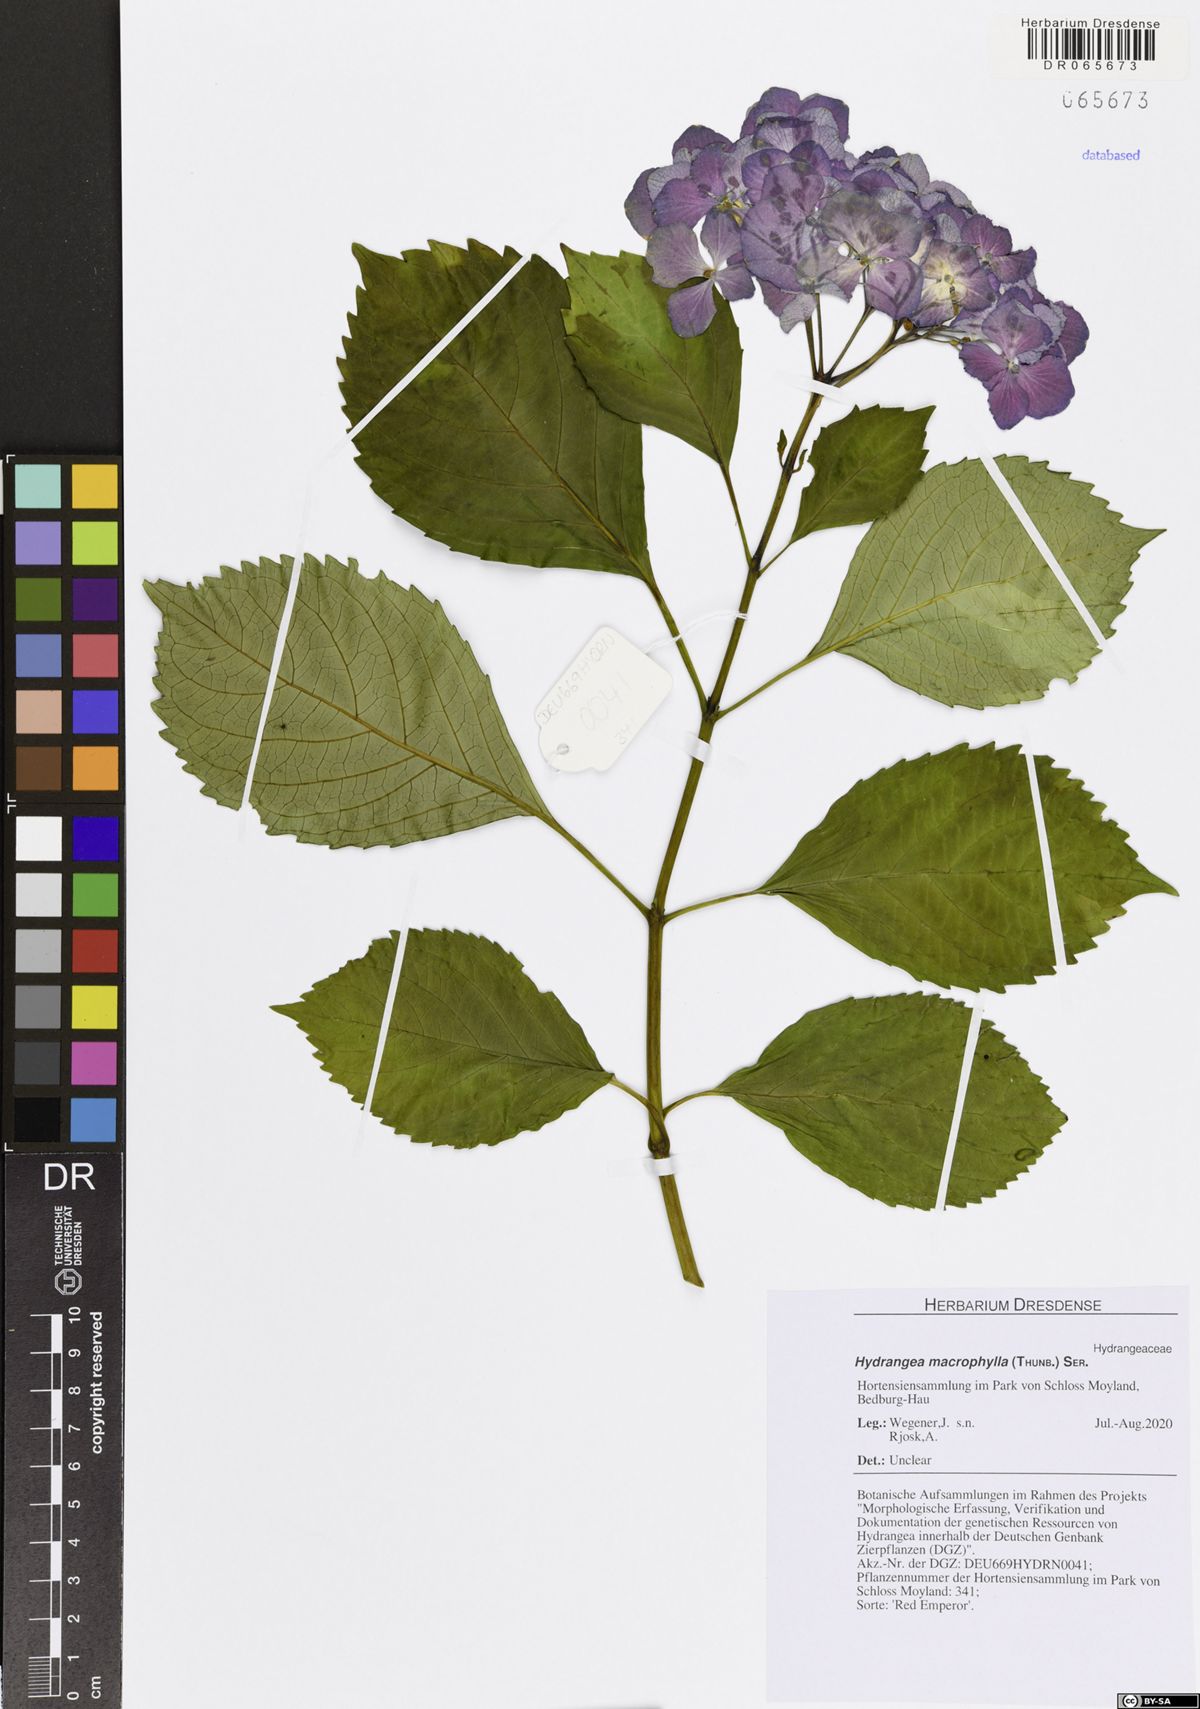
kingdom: Plantae
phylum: Tracheophyta
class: Magnoliopsida
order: Cornales
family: Hydrangeaceae
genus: Hydrangea
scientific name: Hydrangea macrophylla
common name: Hydrangea
